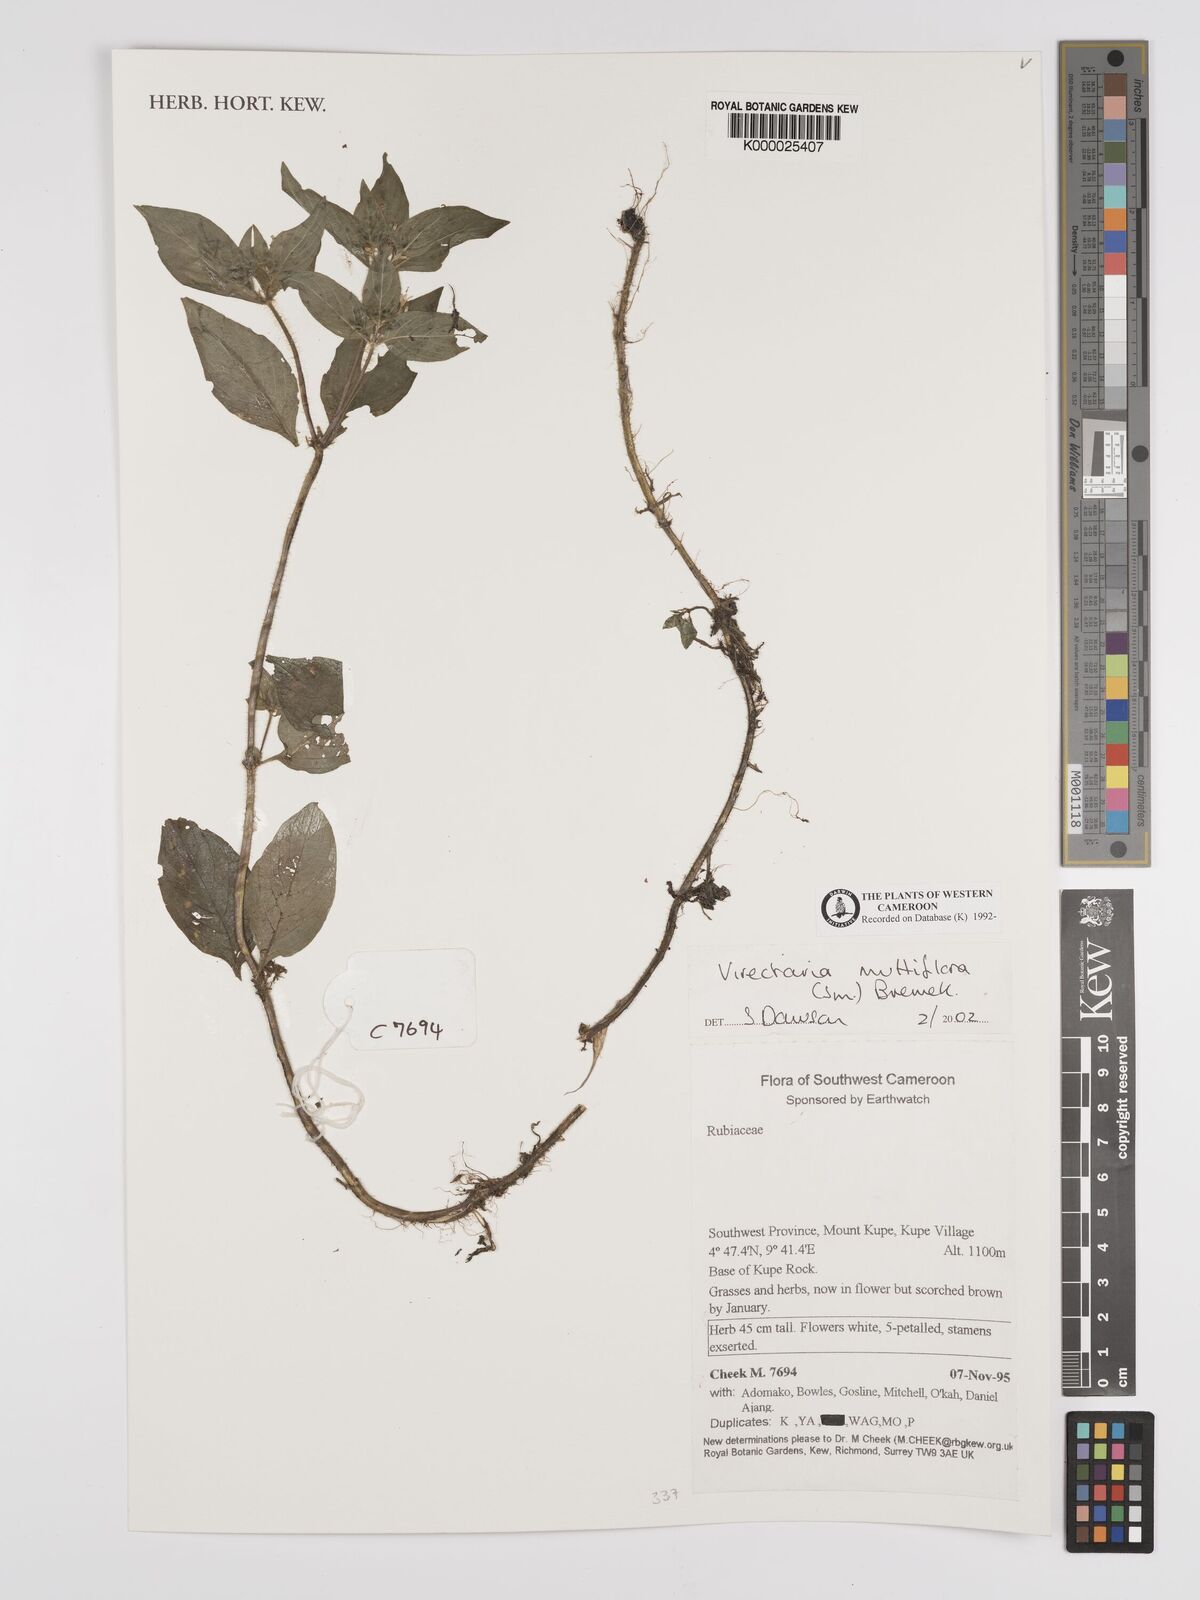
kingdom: Plantae
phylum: Tracheophyta
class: Magnoliopsida
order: Gentianales
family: Rubiaceae
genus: Virectaria
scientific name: Virectaria multiflora
